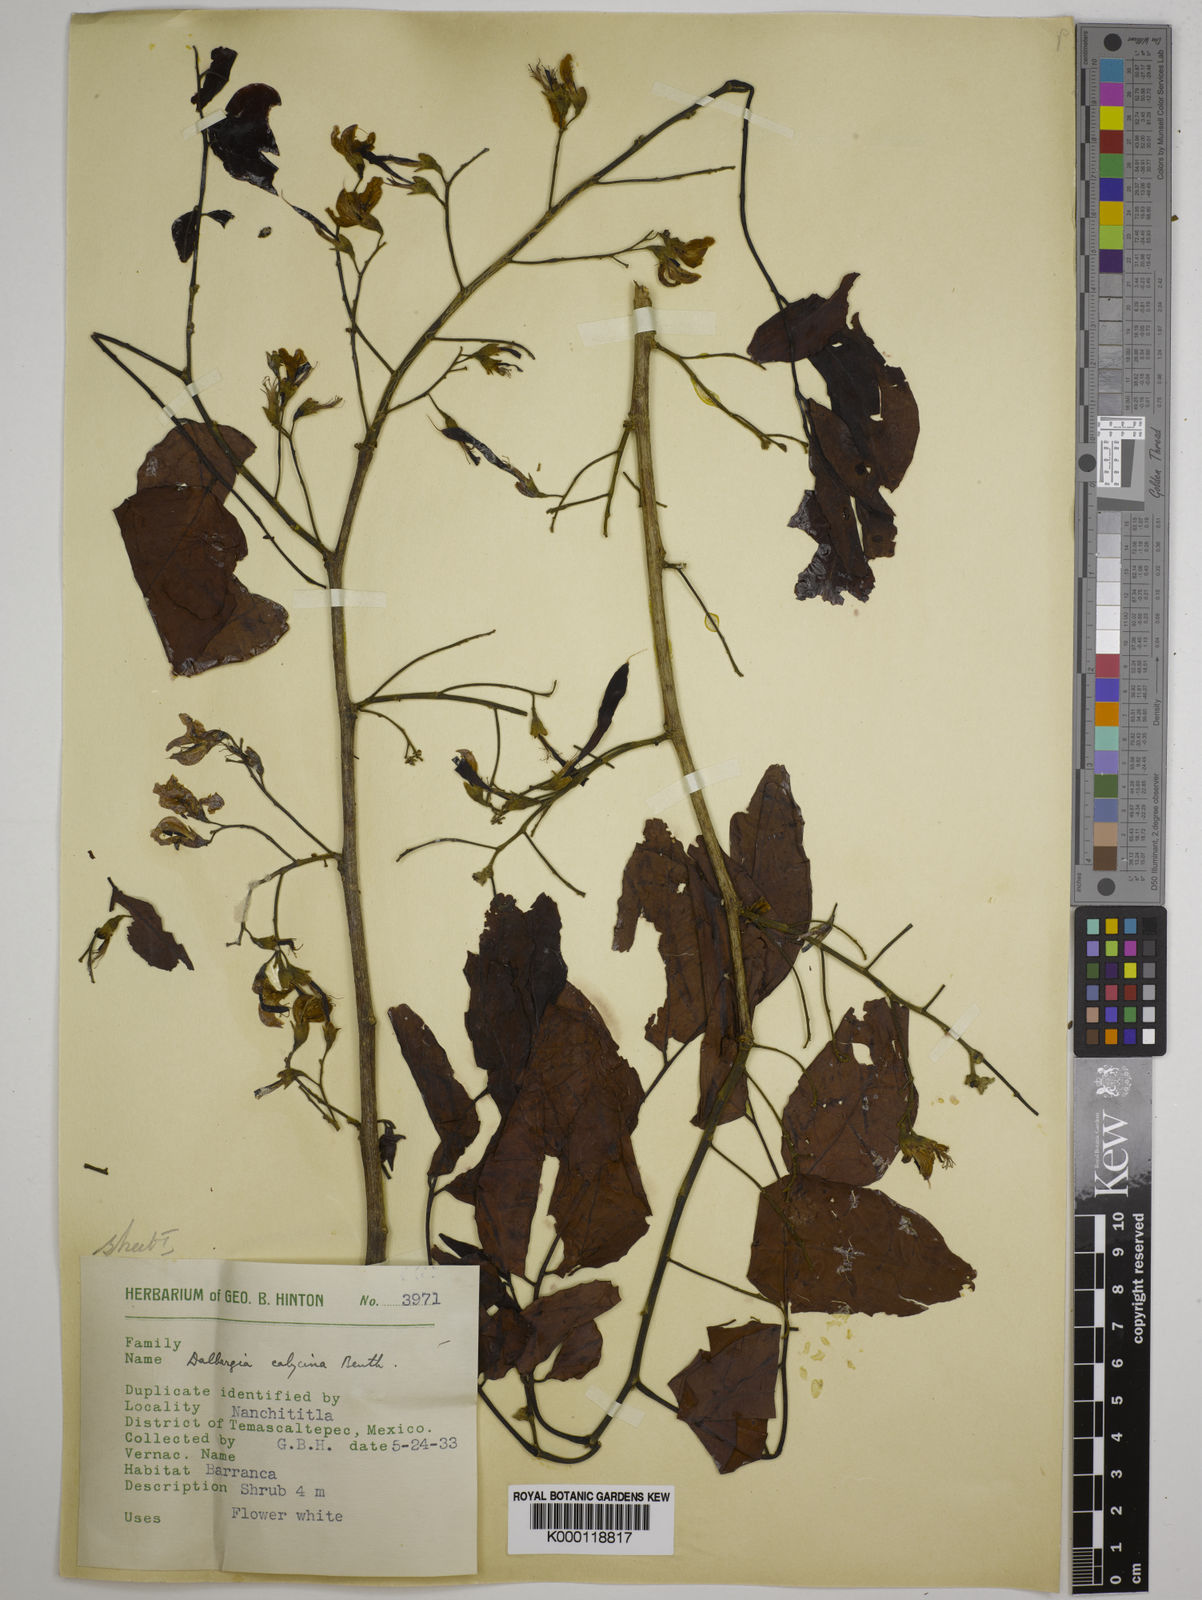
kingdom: Plantae
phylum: Tracheophyta
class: Magnoliopsida
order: Fabales
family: Fabaceae
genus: Dalbergia
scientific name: Dalbergia calycina
